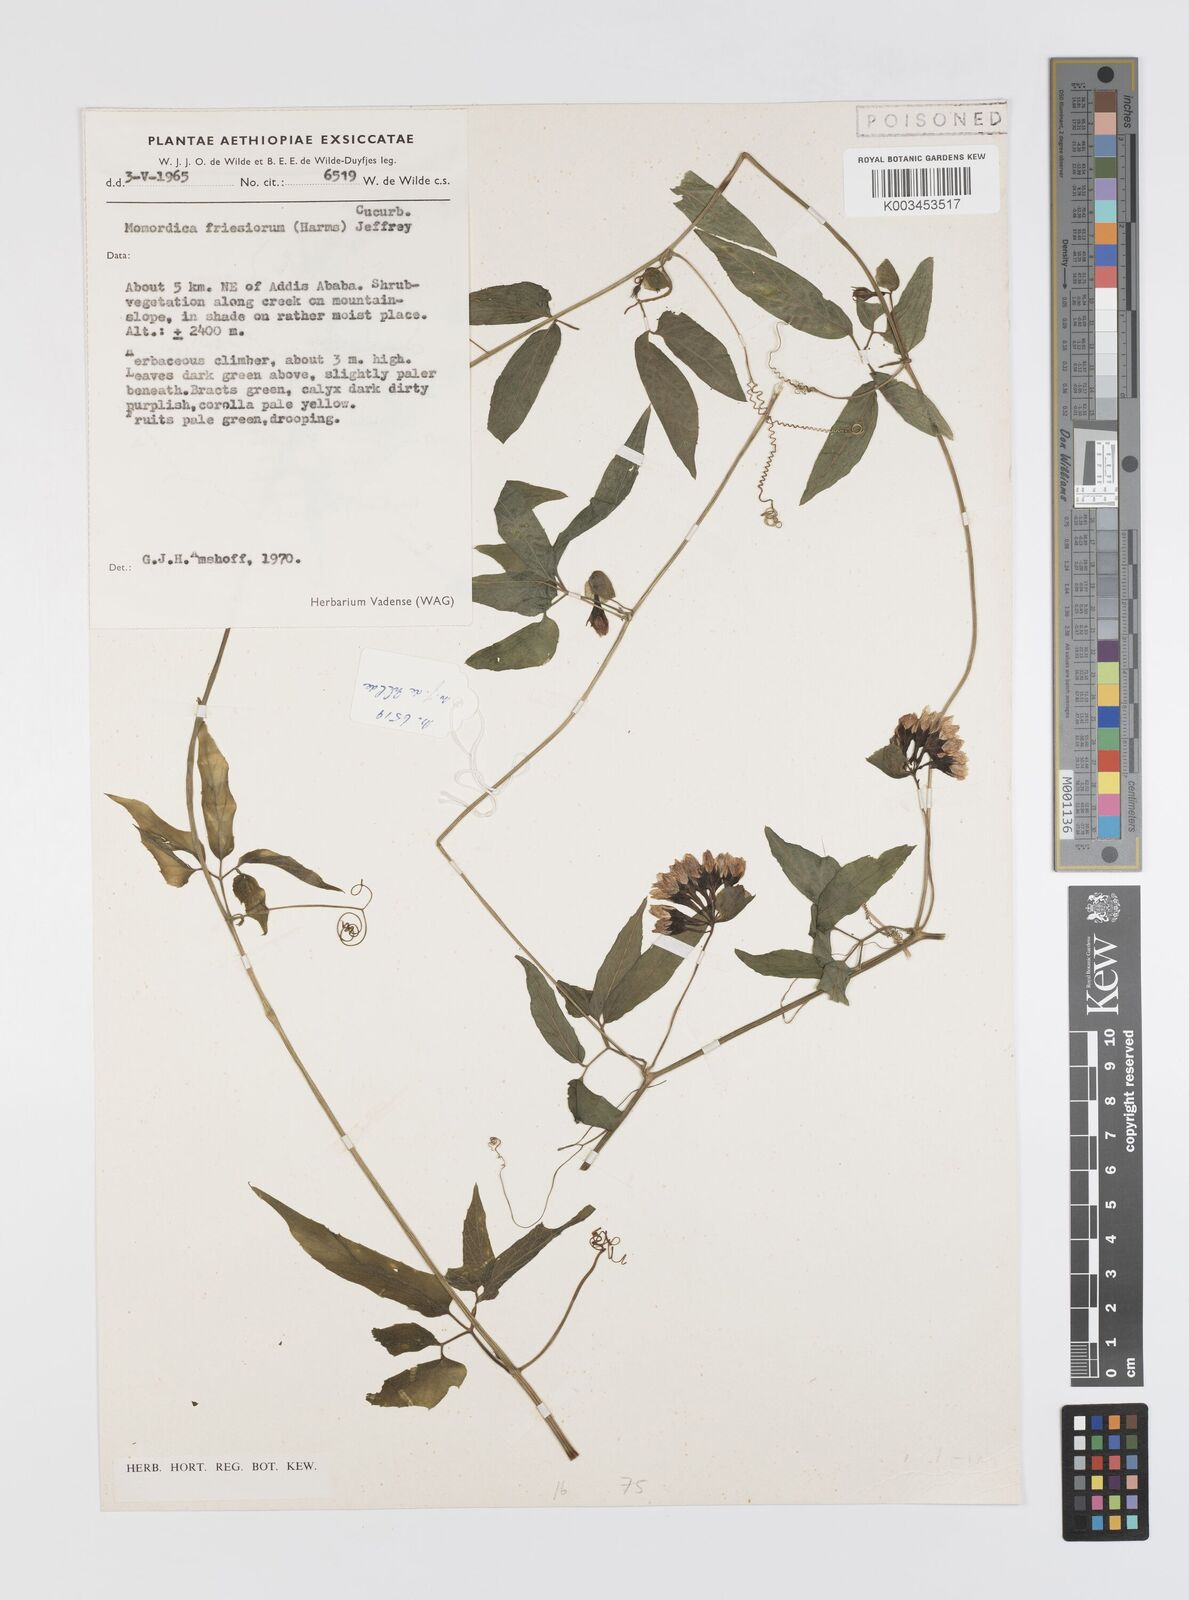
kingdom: Plantae
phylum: Tracheophyta
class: Magnoliopsida
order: Cucurbitales
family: Cucurbitaceae
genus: Momordica
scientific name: Momordica friesiorum
